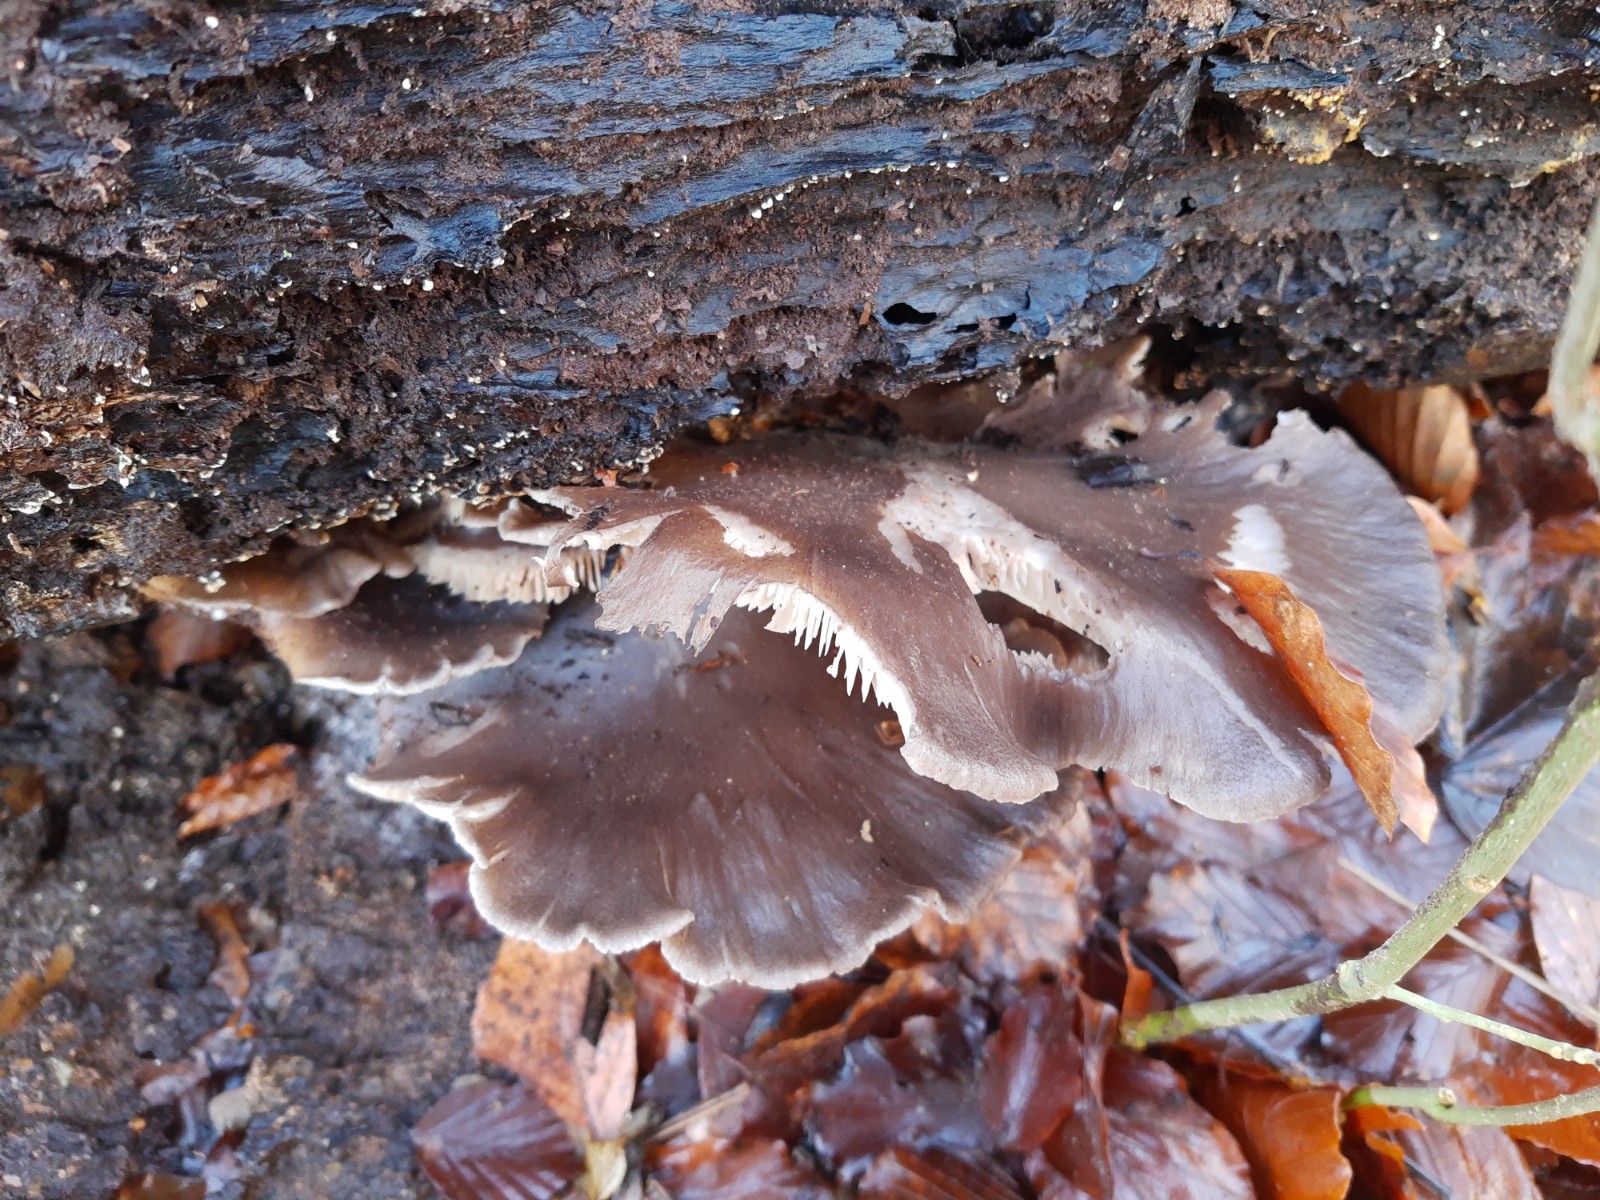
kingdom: Fungi
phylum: Basidiomycota
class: Agaricomycetes
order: Agaricales
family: Pleurotaceae
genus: Pleurotus
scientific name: Pleurotus ostreatus
